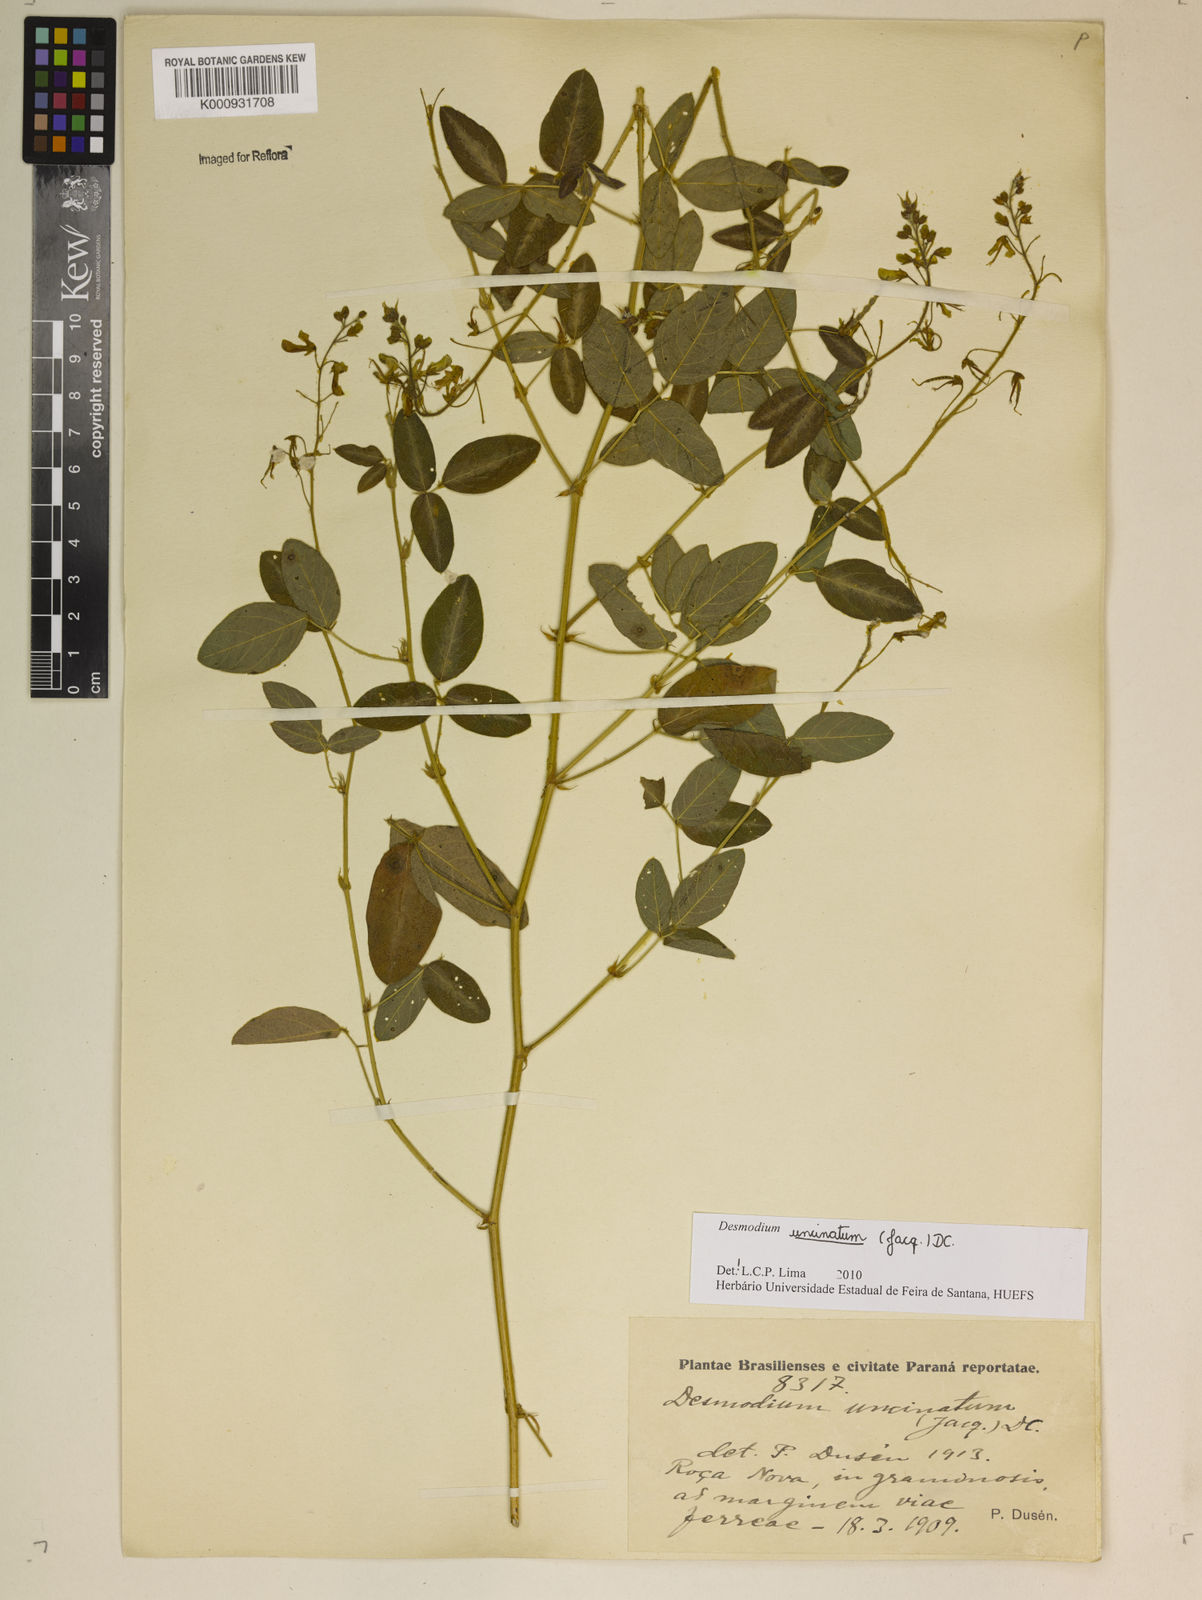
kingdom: Plantae
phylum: Tracheophyta
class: Magnoliopsida
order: Fabales
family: Fabaceae
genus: Desmodium
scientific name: Desmodium uncinatum
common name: Silverleaf desmodium
